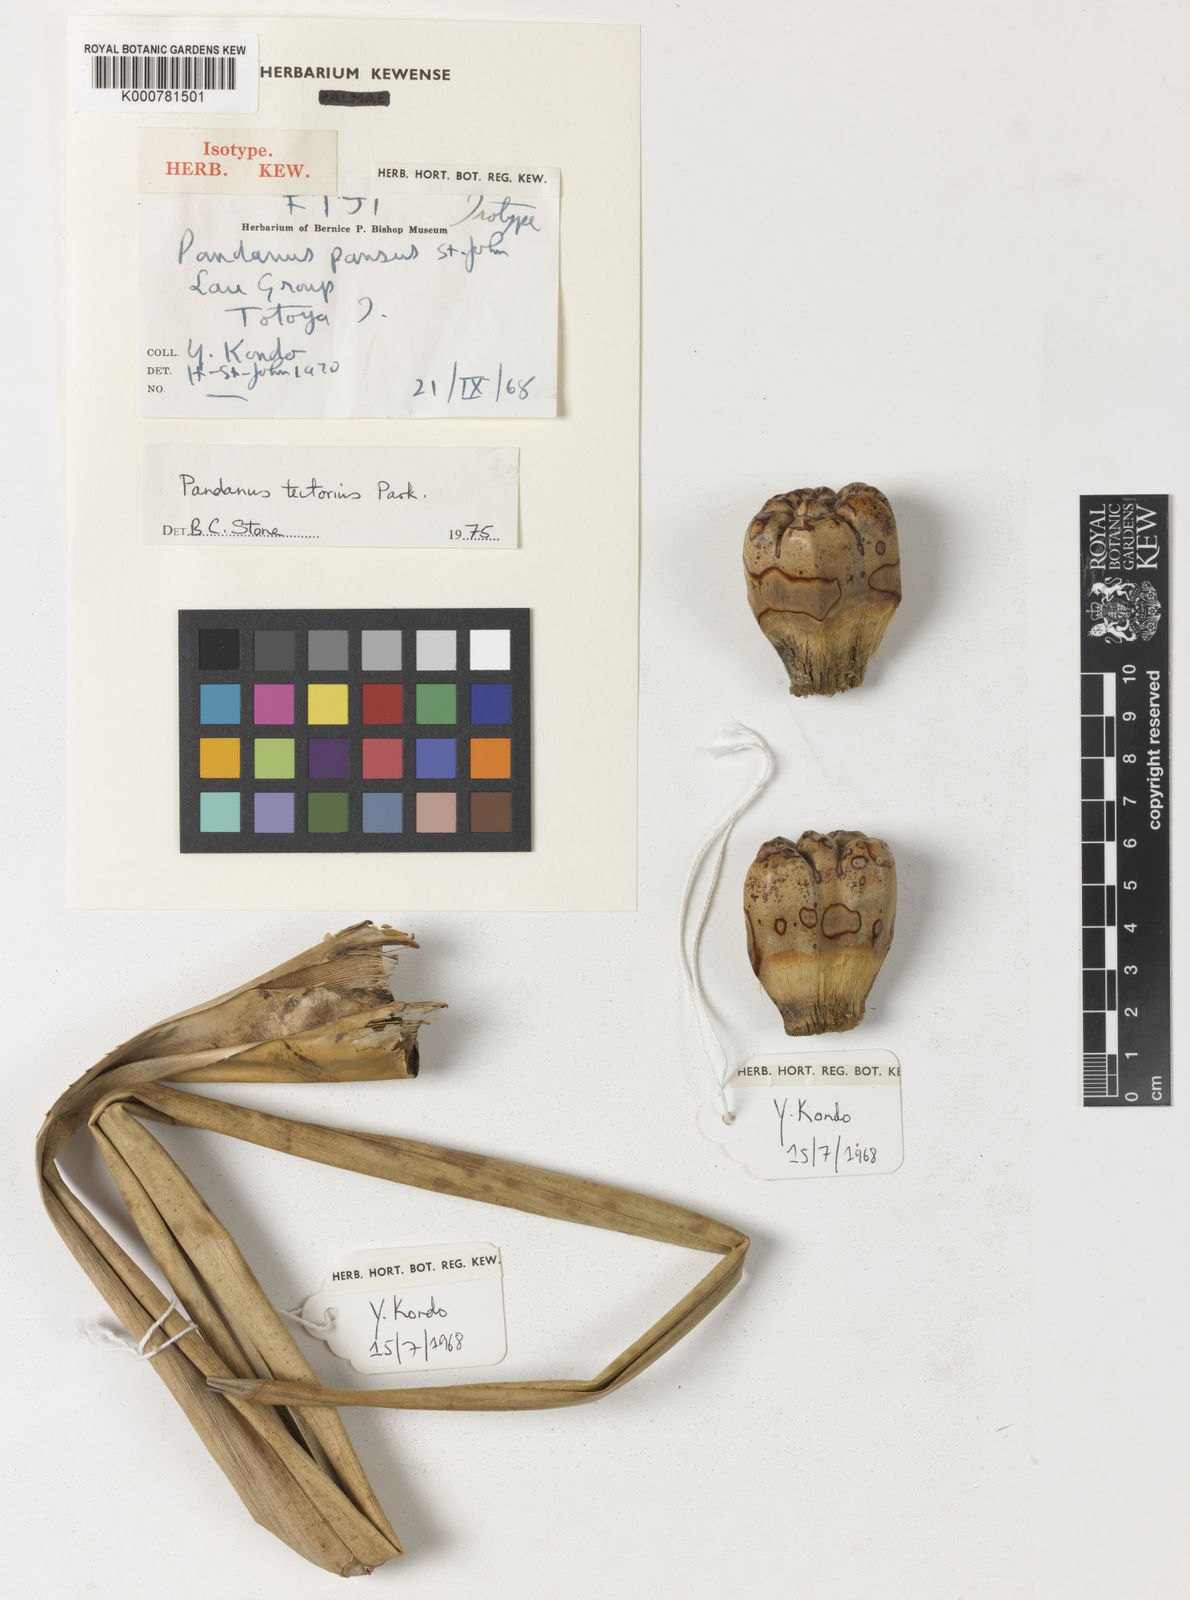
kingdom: Plantae
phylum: Tracheophyta
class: Liliopsida
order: Pandanales
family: Pandanaceae
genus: Pandanus
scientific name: Pandanus
